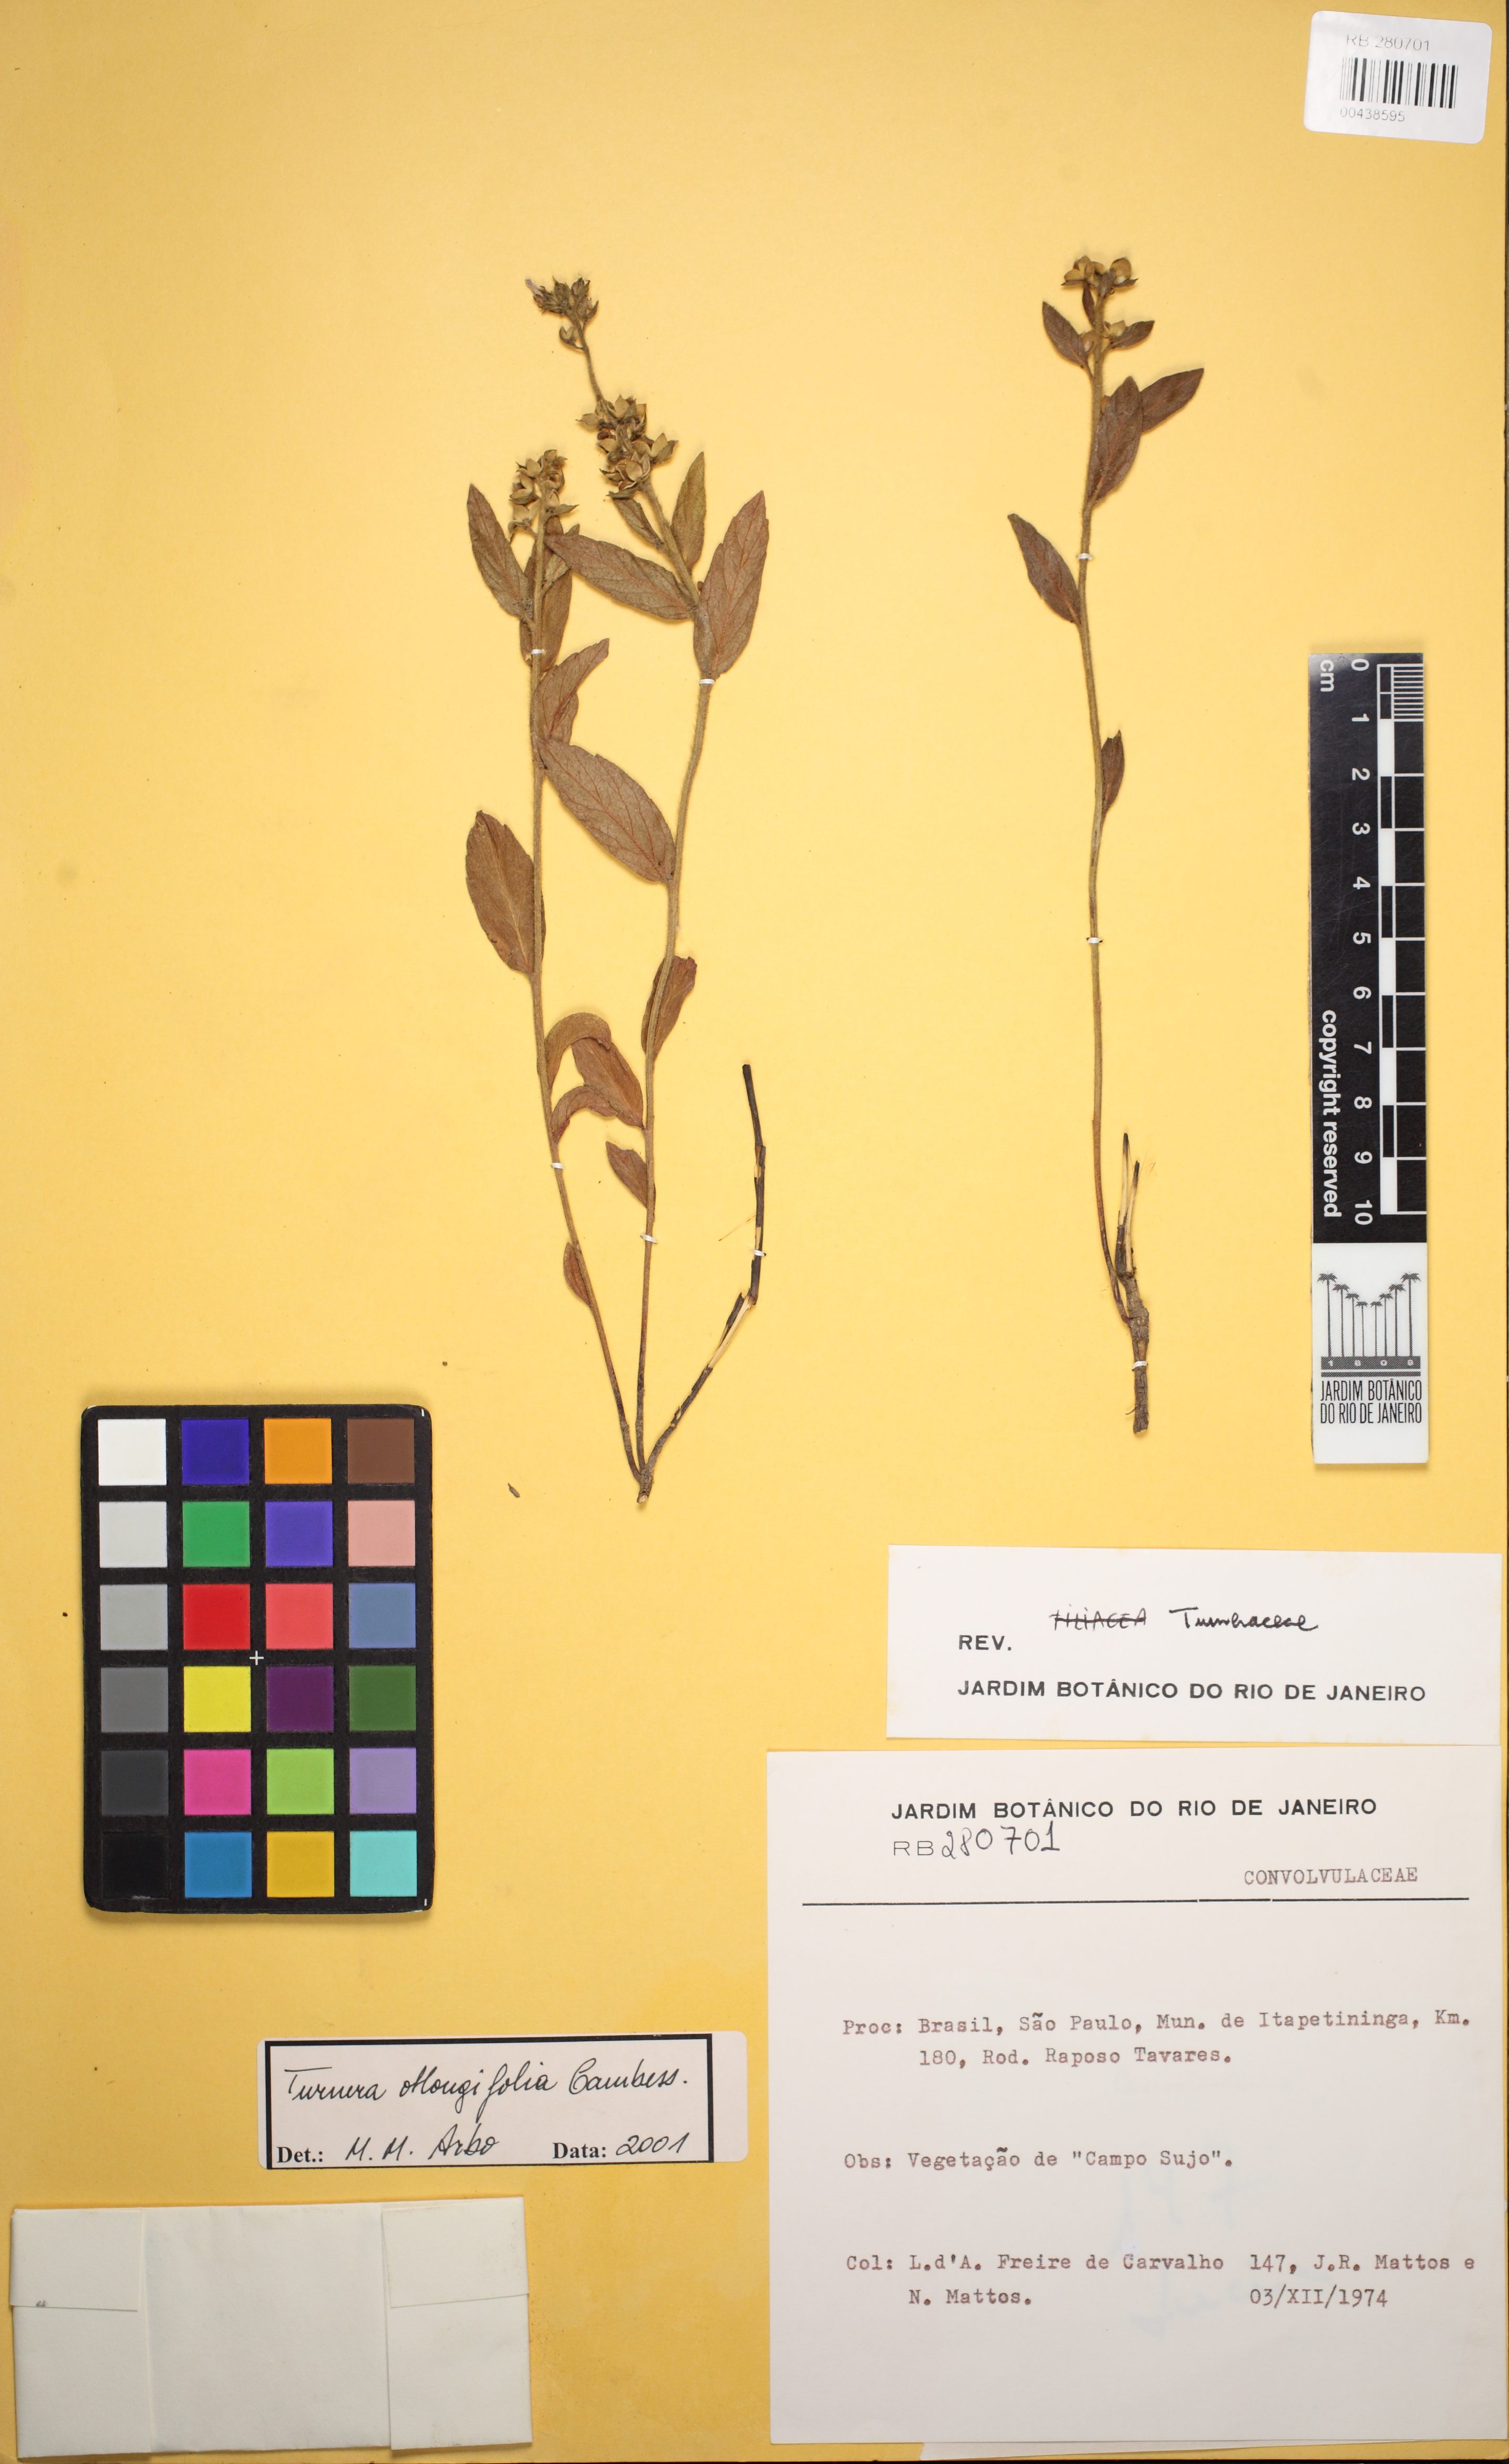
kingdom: Plantae
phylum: Tracheophyta
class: Magnoliopsida
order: Malpighiales
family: Turneraceae
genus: Turnera
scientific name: Turnera oblongifolia
